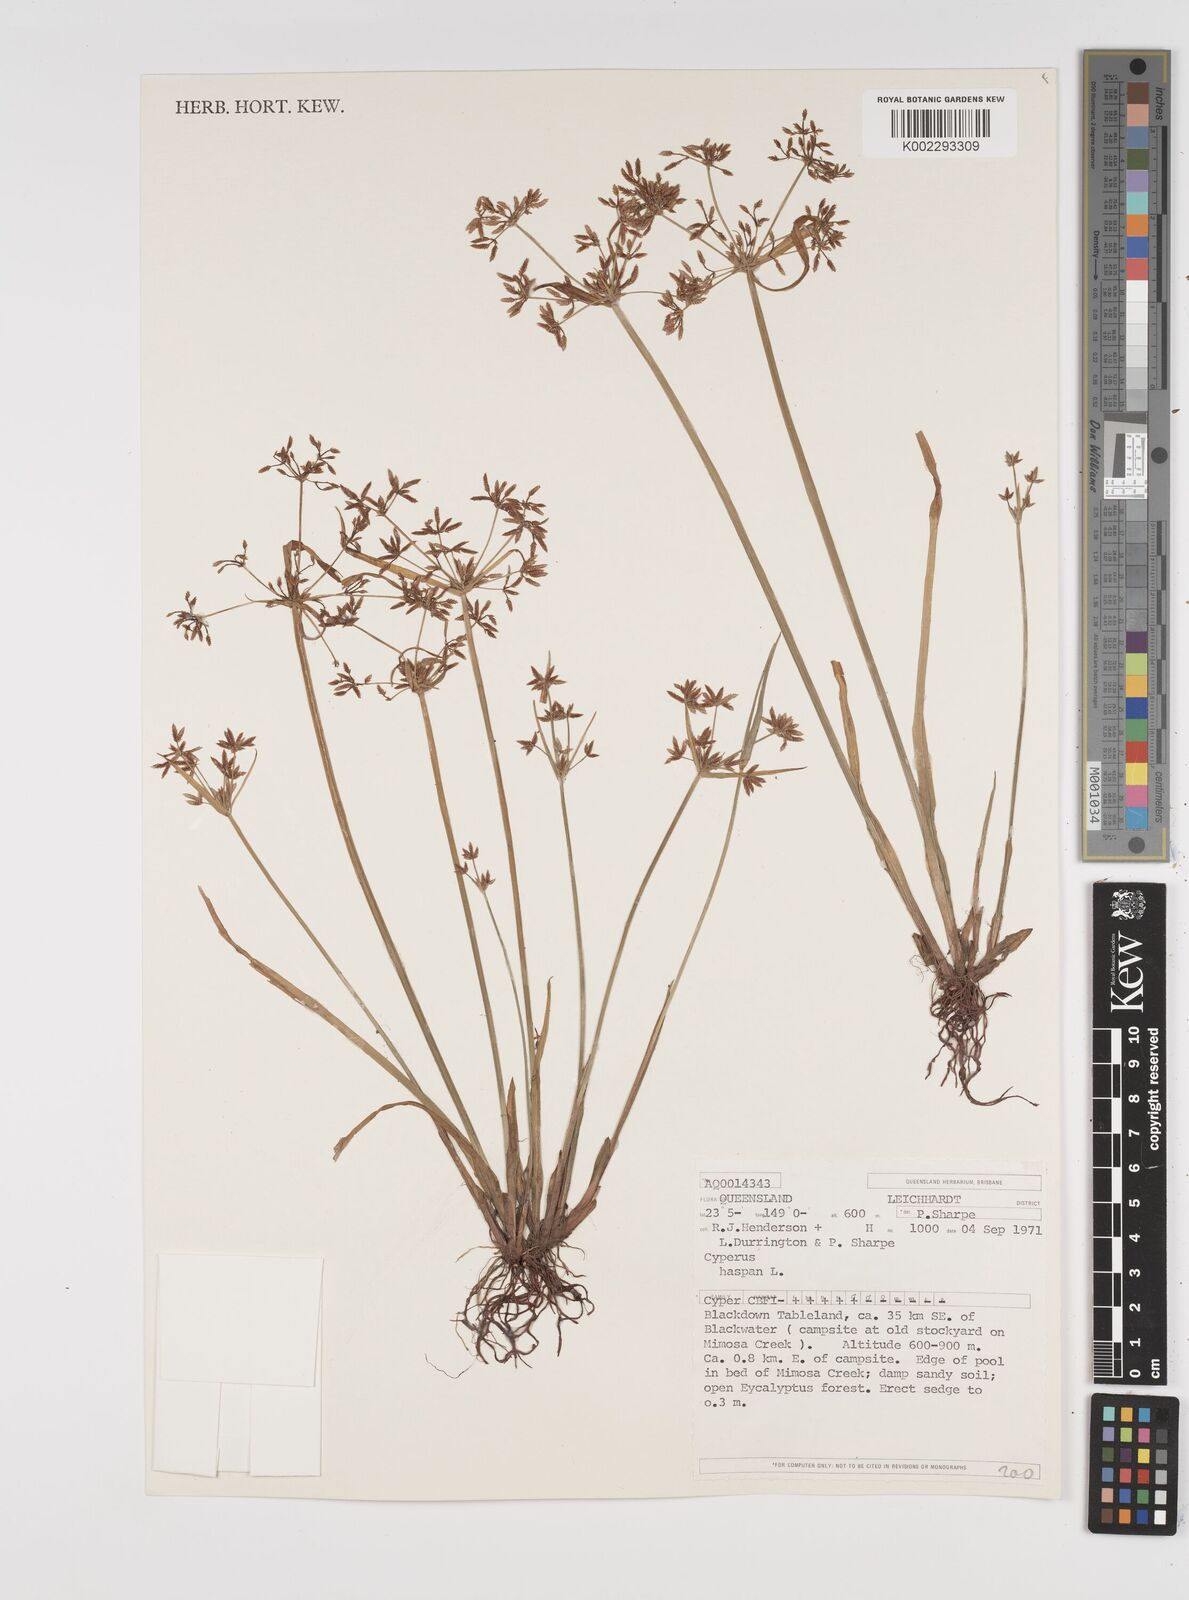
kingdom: Plantae
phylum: Tracheophyta
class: Liliopsida
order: Poales
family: Cyperaceae
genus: Cyperus
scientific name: Cyperus haspan
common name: Haspan flatsedge
